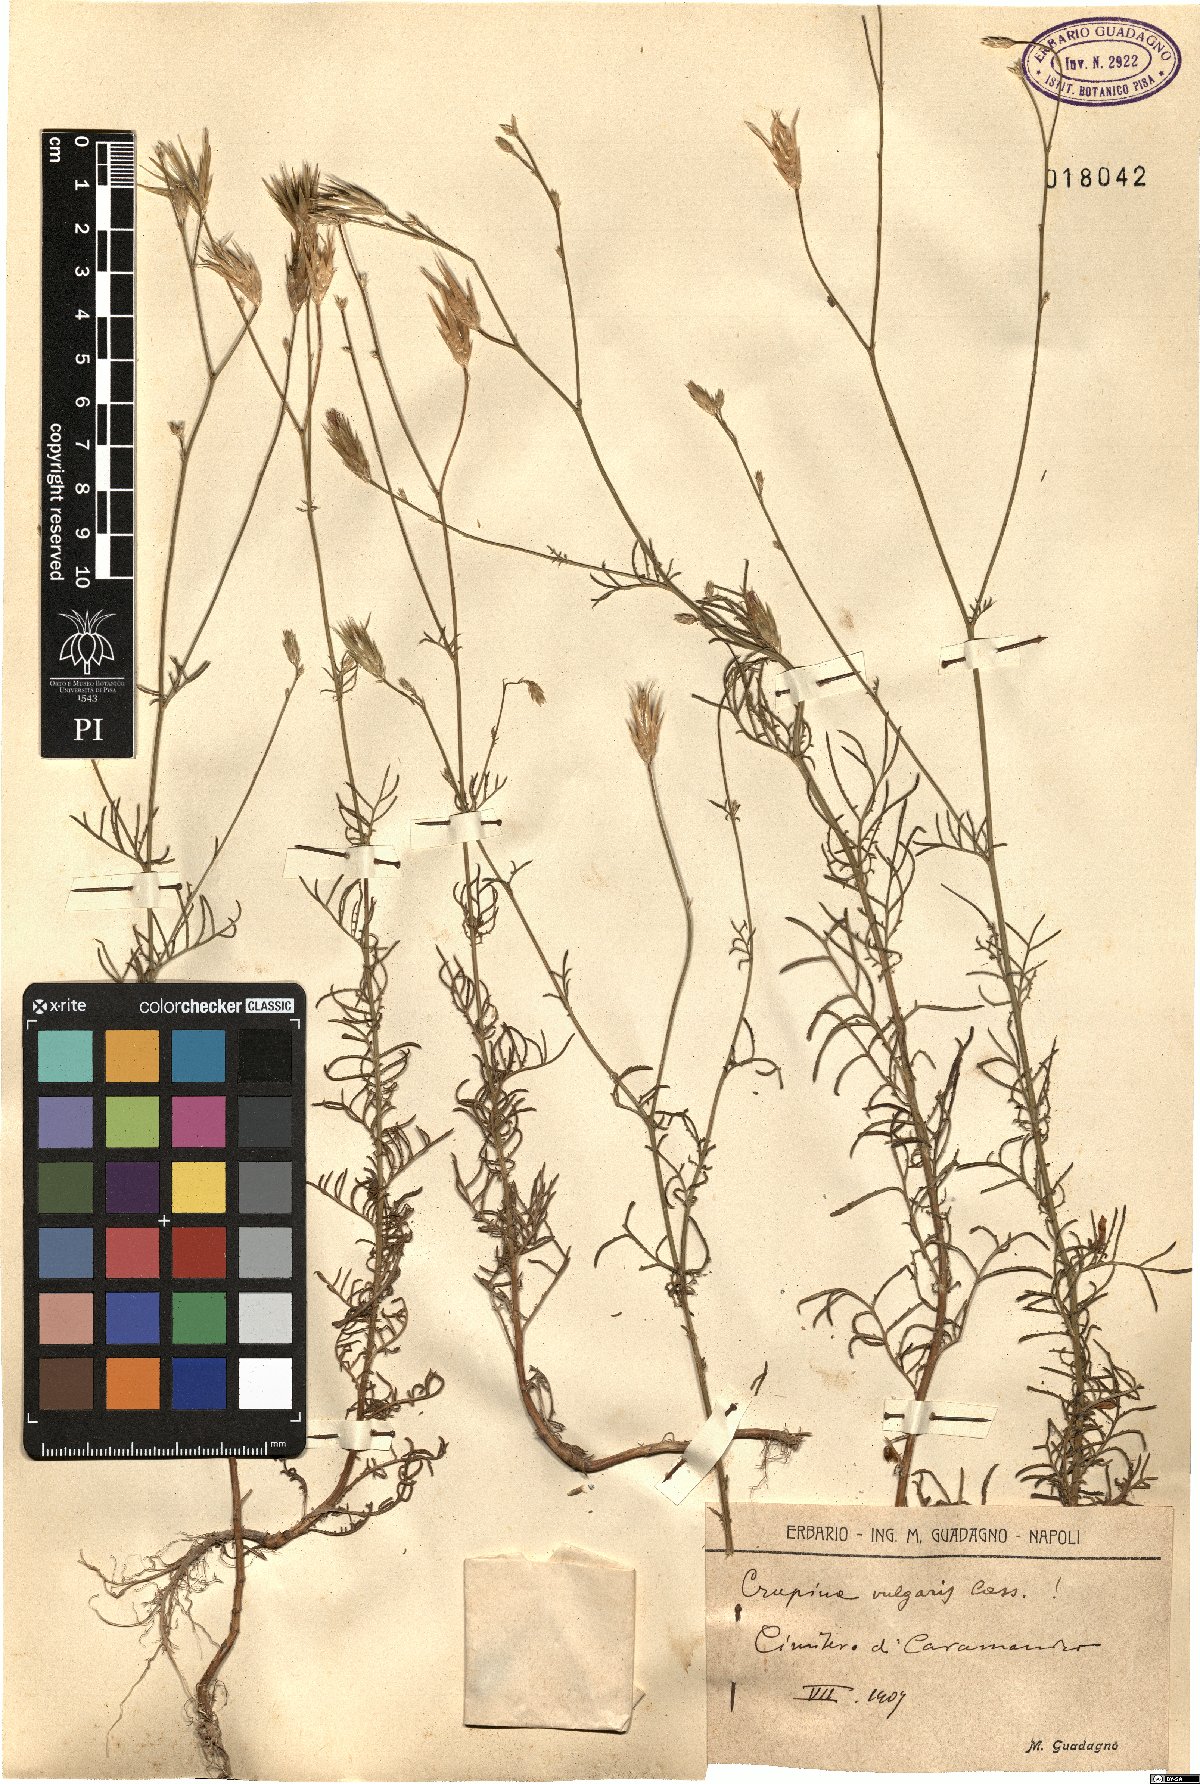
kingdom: Plantae
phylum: Tracheophyta
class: Magnoliopsida
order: Asterales
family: Asteraceae
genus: Crupina
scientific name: Crupina vulgaris
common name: Common crupina
